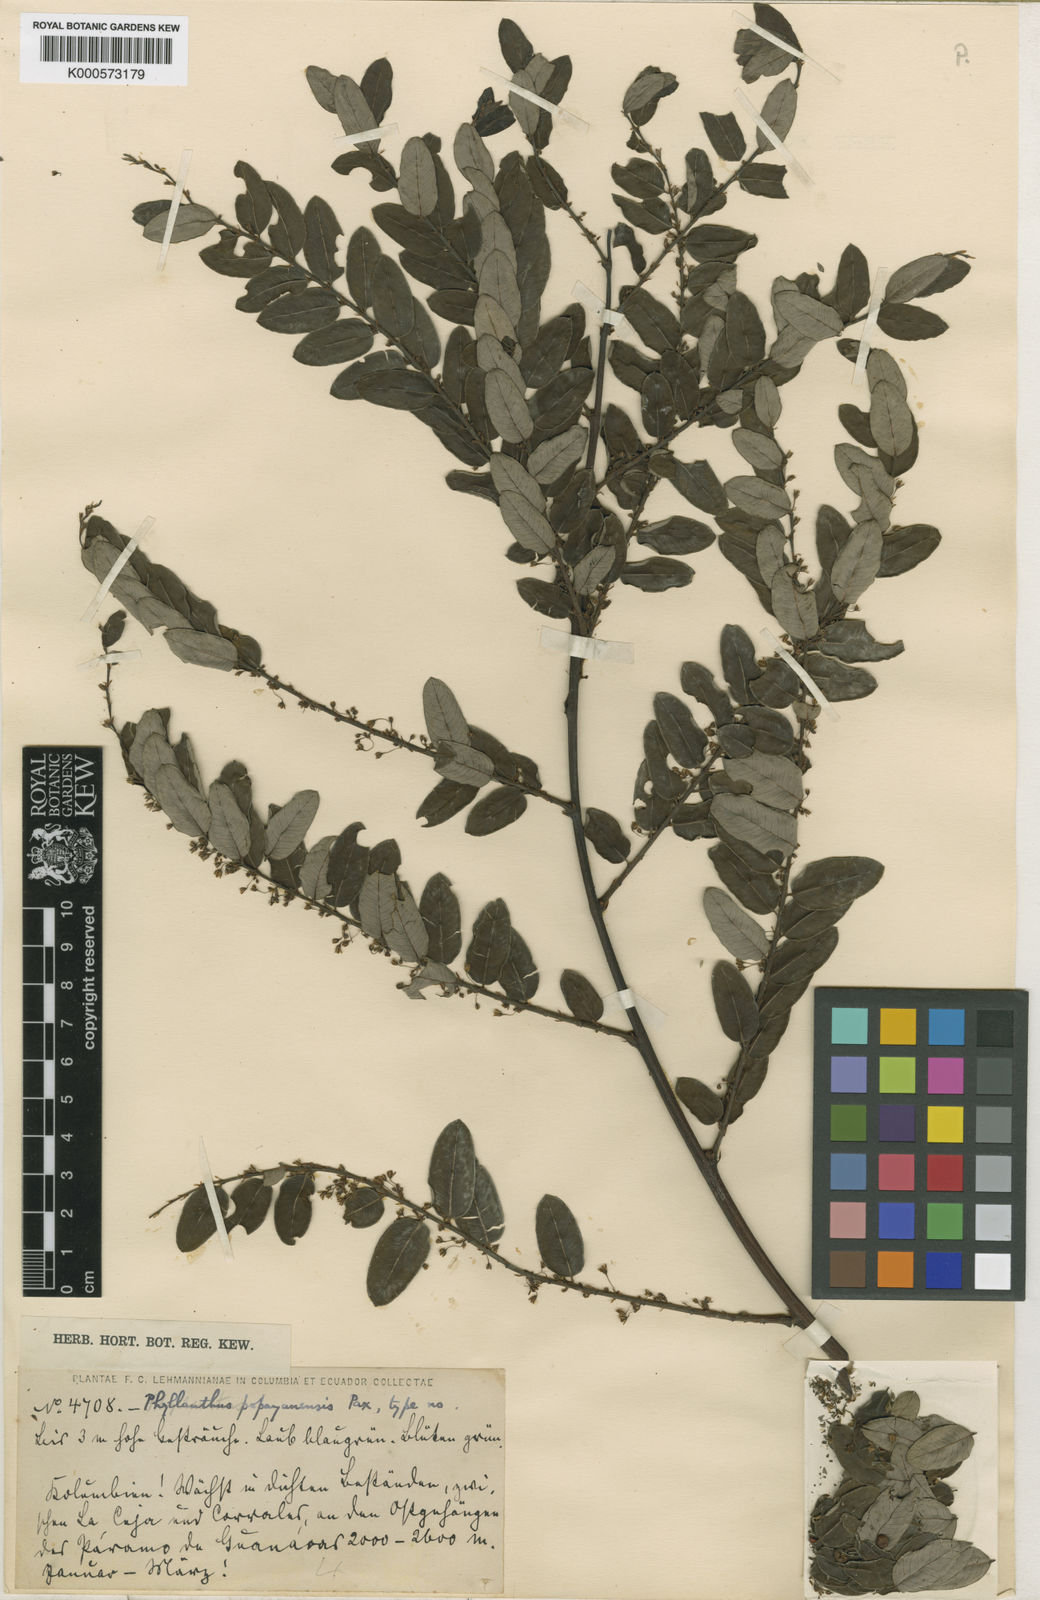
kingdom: Plantae
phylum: Tracheophyta
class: Magnoliopsida
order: Malpighiales
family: Phyllanthaceae
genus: Phyllanthus
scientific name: Phyllanthus popayanensis
